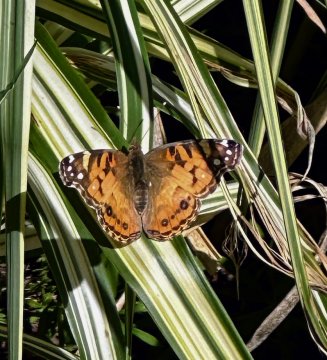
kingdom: Animalia
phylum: Arthropoda
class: Insecta
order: Lepidoptera
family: Nymphalidae
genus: Vanessa
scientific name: Vanessa virginiensis
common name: American Lady
